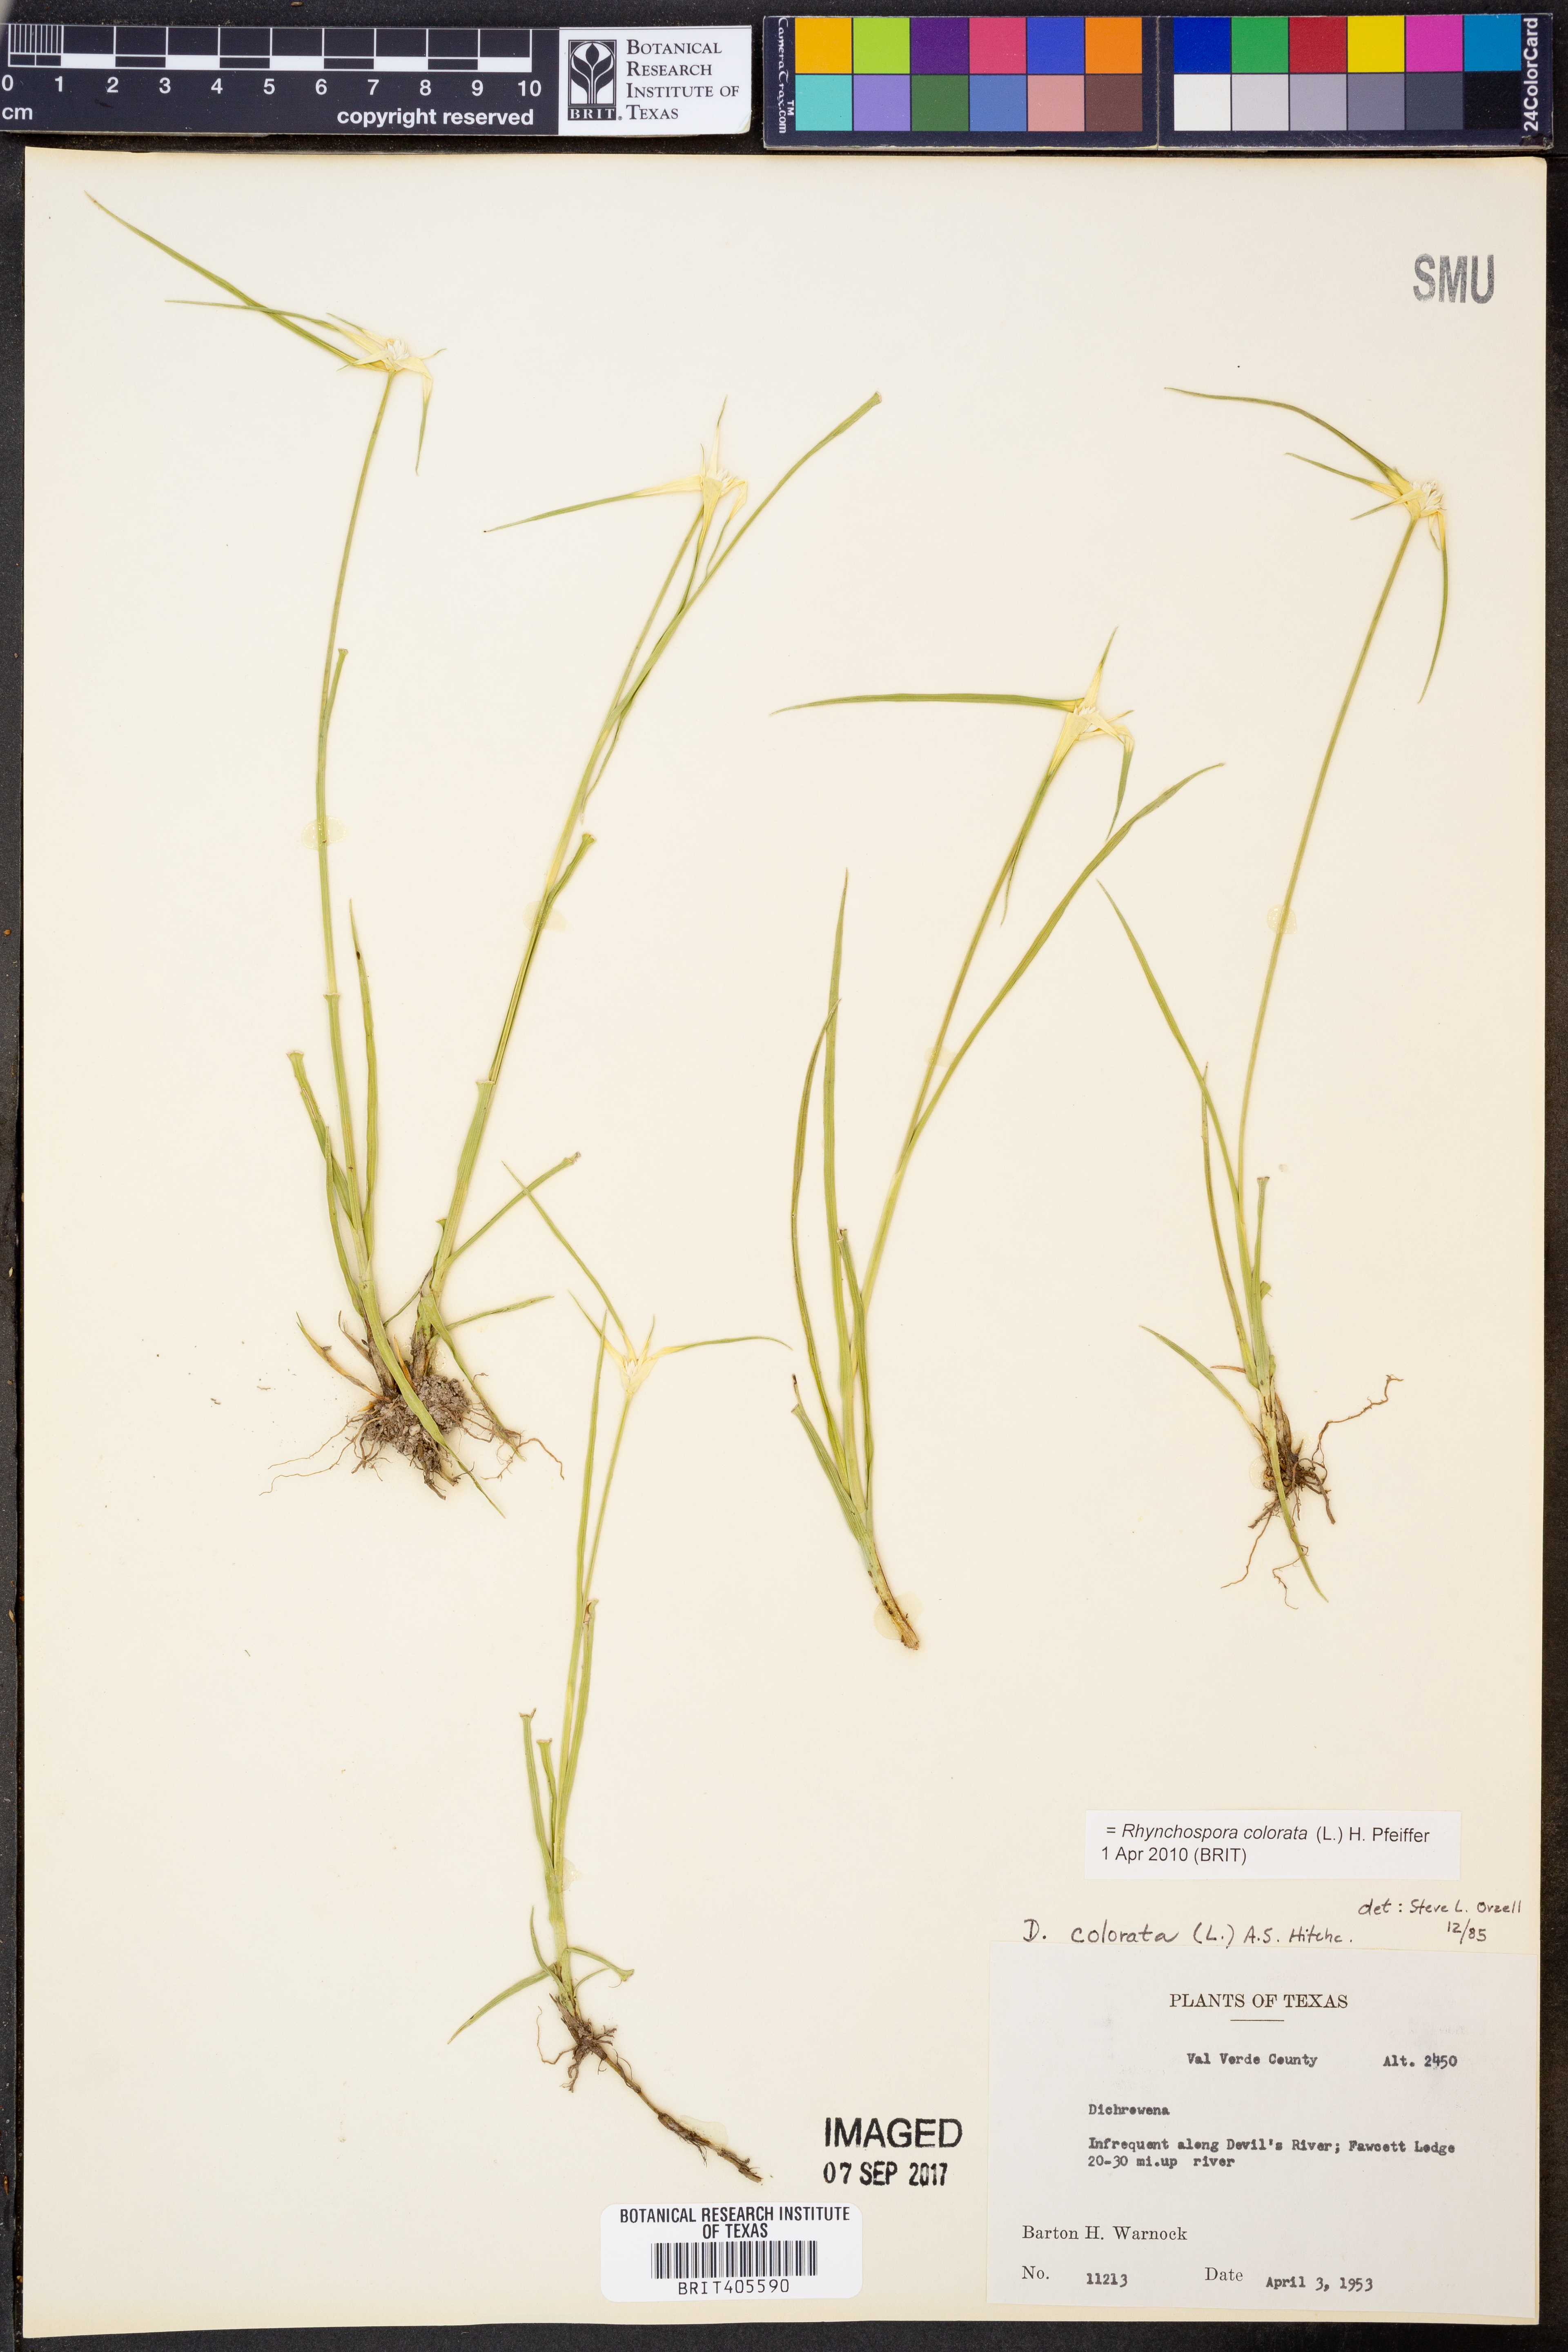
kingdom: Plantae
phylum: Tracheophyta
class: Liliopsida
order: Poales
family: Cyperaceae
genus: Rhynchospora
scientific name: Rhynchospora colorata
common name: Star sedge
